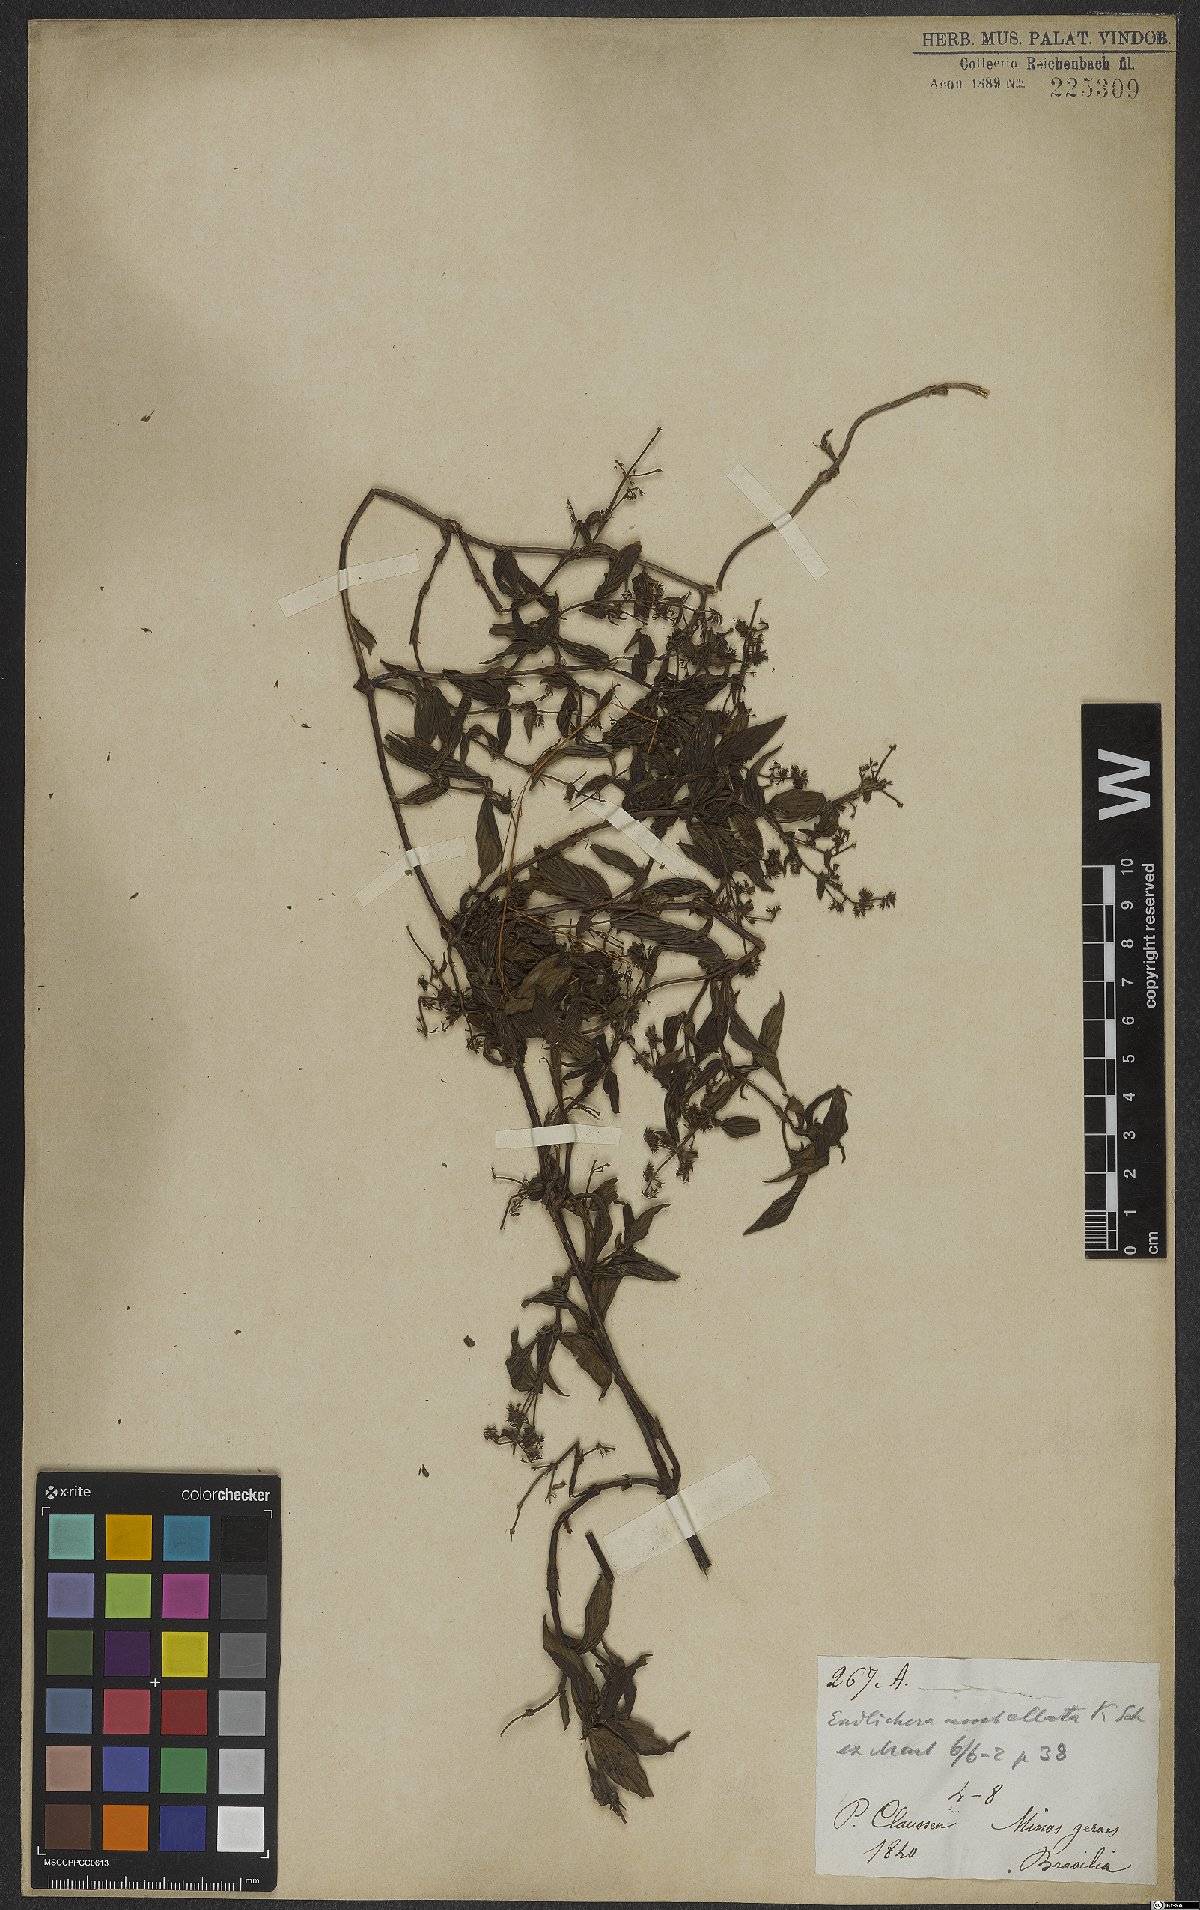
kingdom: Plantae
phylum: Tracheophyta
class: Magnoliopsida
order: Gentianales
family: Rubiaceae
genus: Emmeorhiza
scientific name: Emmeorhiza umbellata
